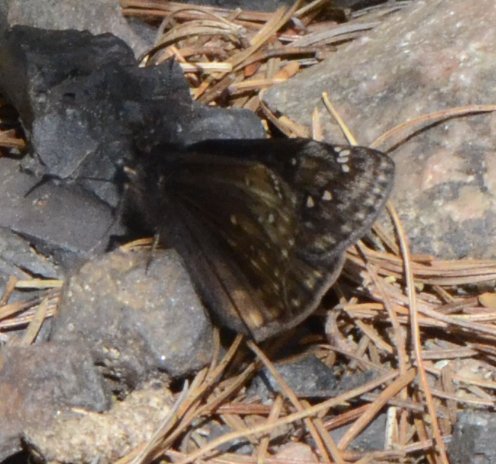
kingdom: Animalia
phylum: Arthropoda
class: Insecta
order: Lepidoptera
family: Hesperiidae
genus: Gesta
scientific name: Gesta
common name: Juvenal's Duskywing
